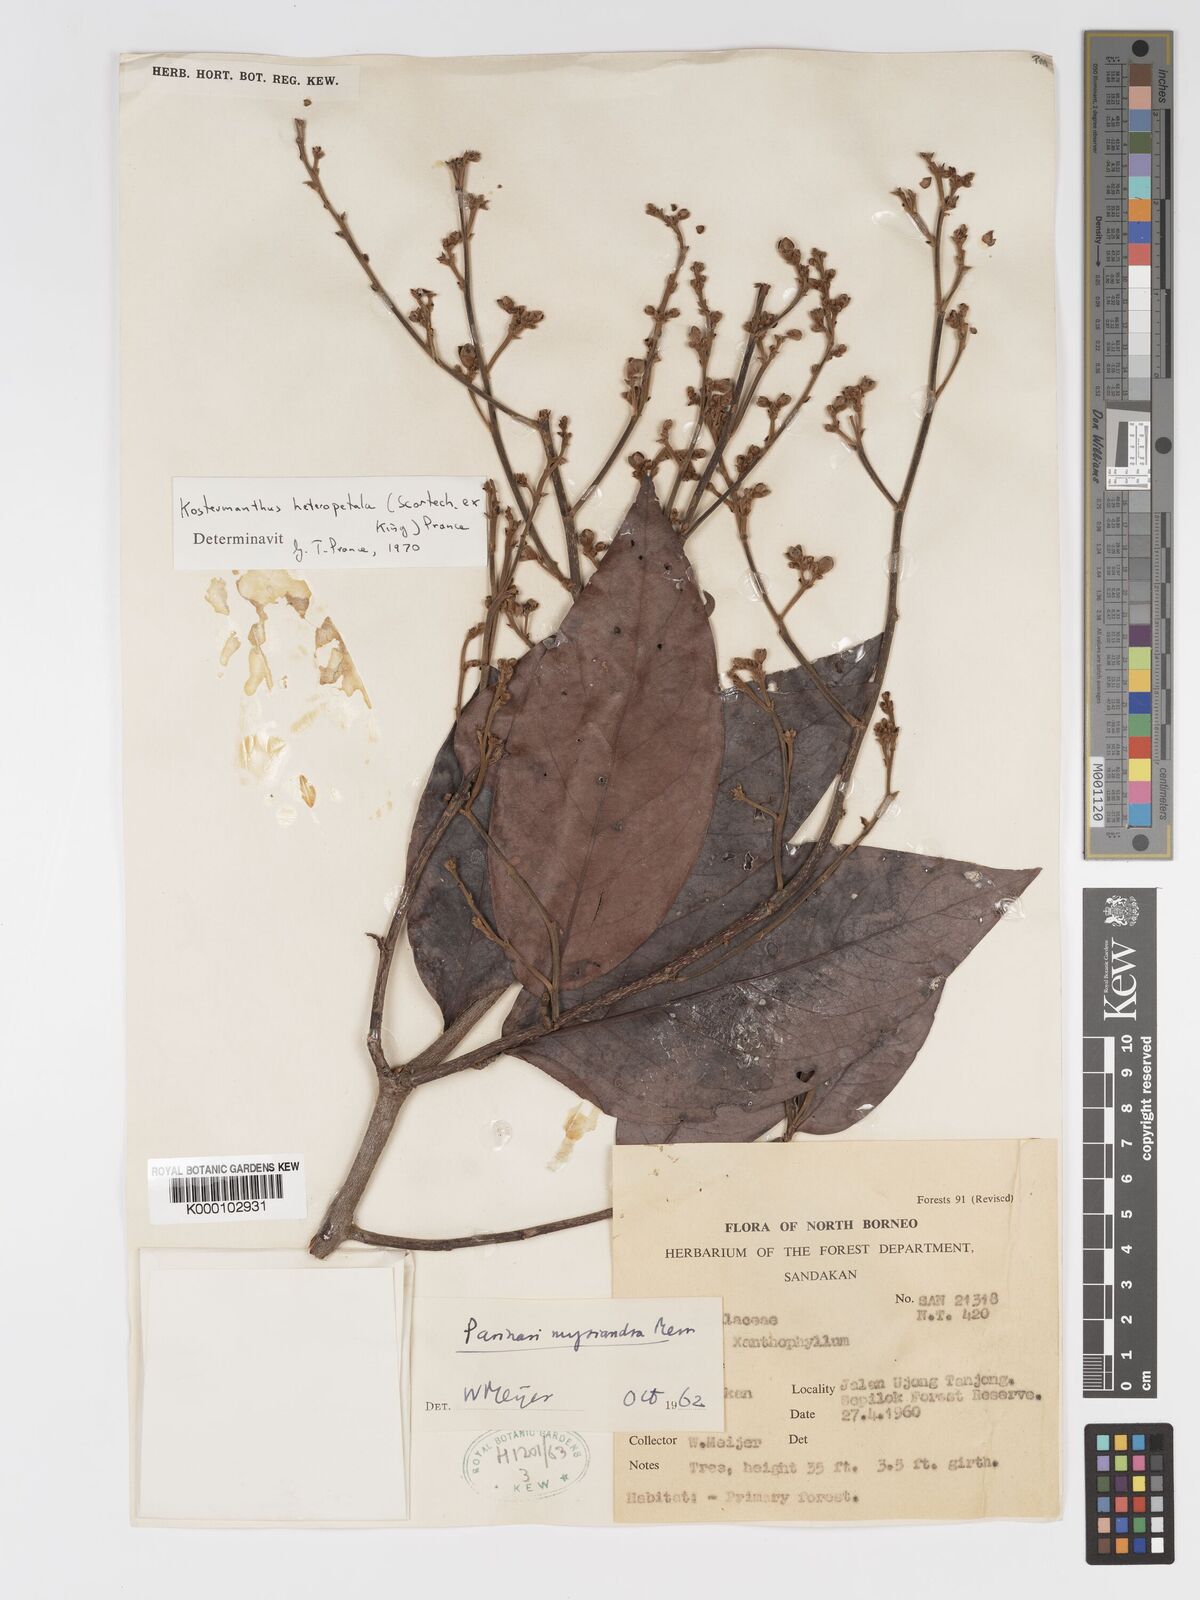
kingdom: Plantae
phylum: Tracheophyta
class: Magnoliopsida
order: Malpighiales
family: Chrysobalanaceae
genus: Kostermanthus
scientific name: Kostermanthus heteropetalus
